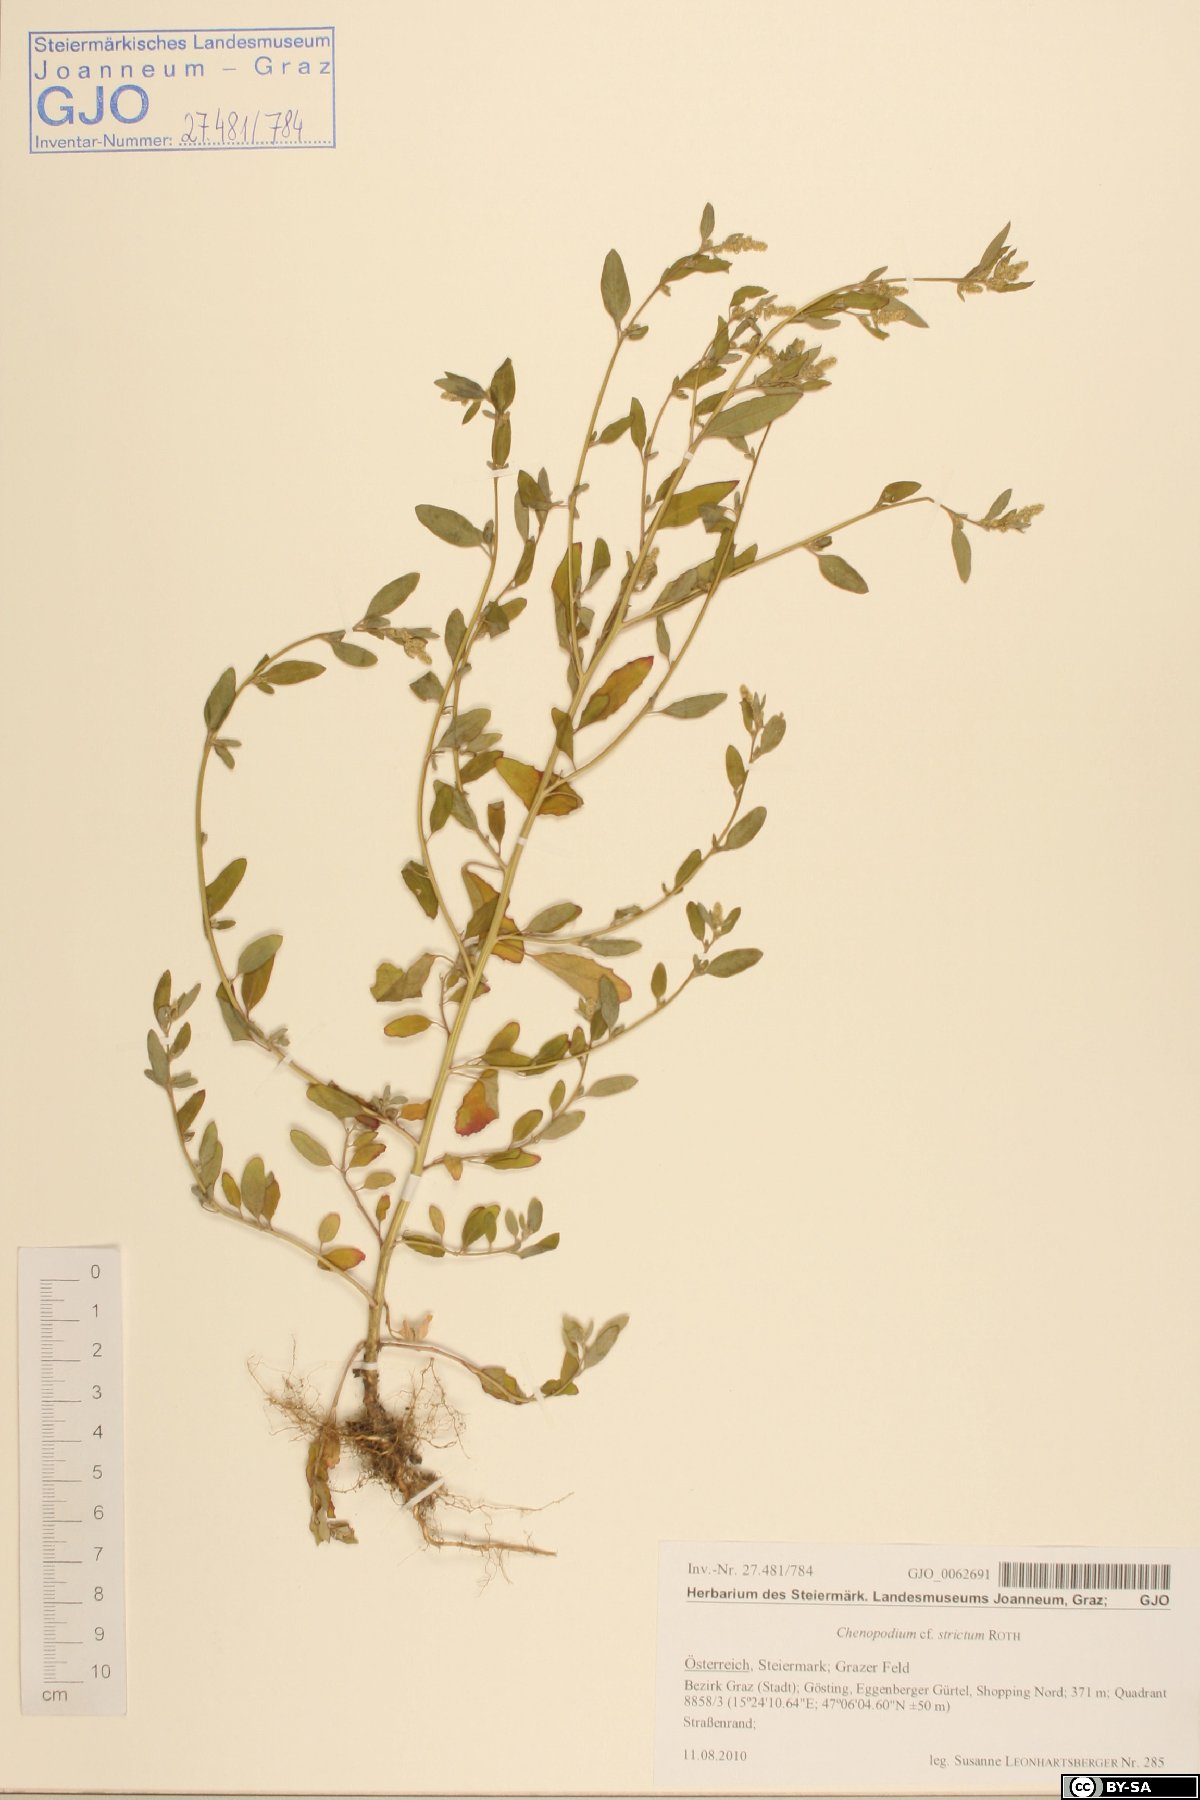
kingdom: Plantae
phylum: Tracheophyta
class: Magnoliopsida
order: Caryophyllales
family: Amaranthaceae
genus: Chenopodium
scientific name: Chenopodium album
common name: Fat-hen
